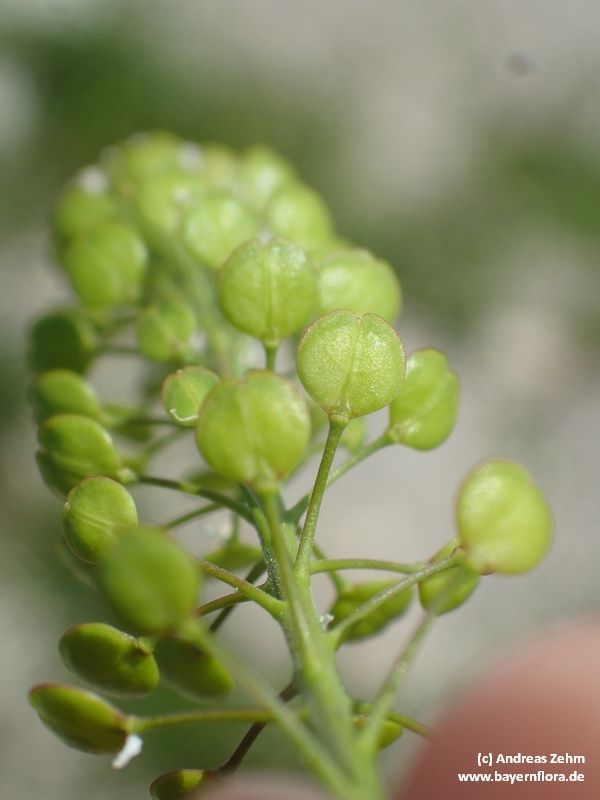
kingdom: Plantae
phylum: Tracheophyta
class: Magnoliopsida
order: Brassicales
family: Brassicaceae
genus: Lepidium
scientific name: Lepidium virginicum
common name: Least pepperwort
